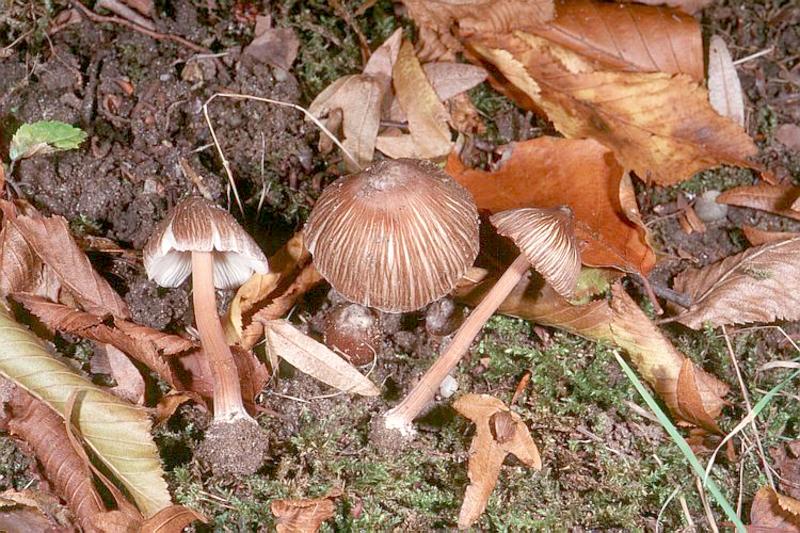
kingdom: Fungi
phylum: Basidiomycota
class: Agaricomycetes
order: Agaricales
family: Inocybaceae
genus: Inocybe
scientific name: Inocybe asterospora
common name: Star fibrecap
